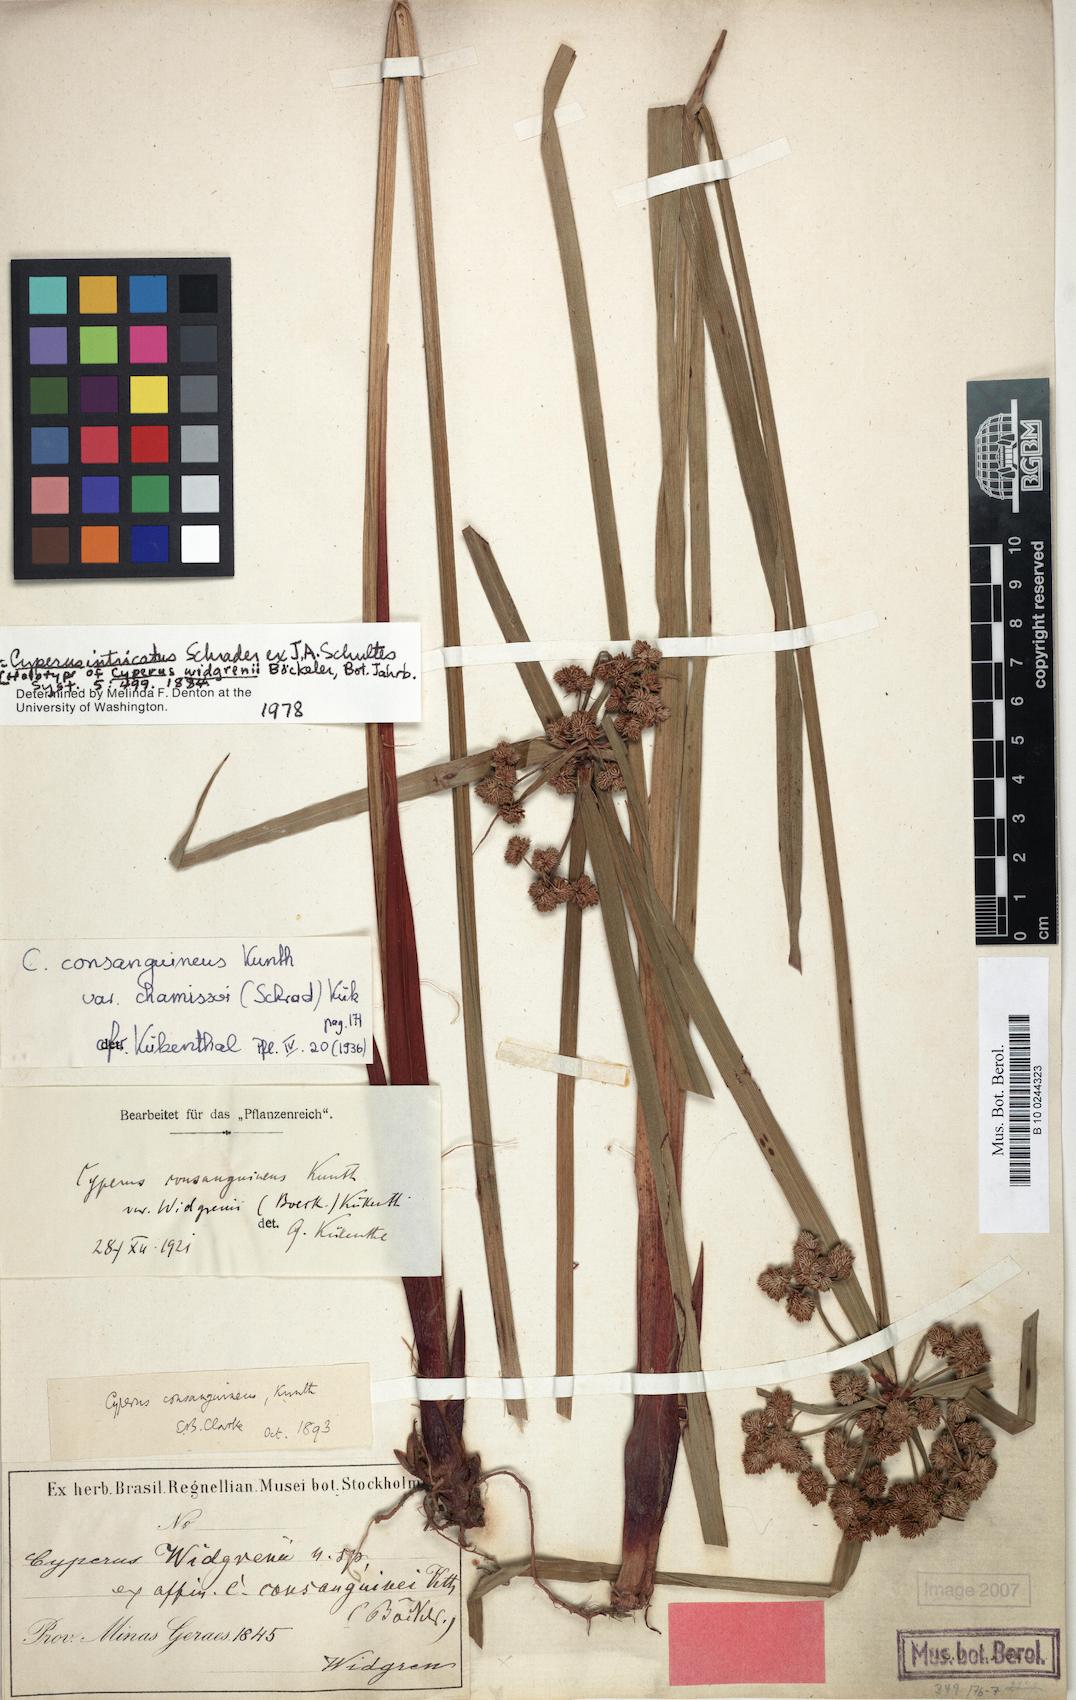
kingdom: Plantae
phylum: Tracheophyta
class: Liliopsida
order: Poales
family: Cyperaceae
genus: Cyperus
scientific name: Cyperus intricatus
